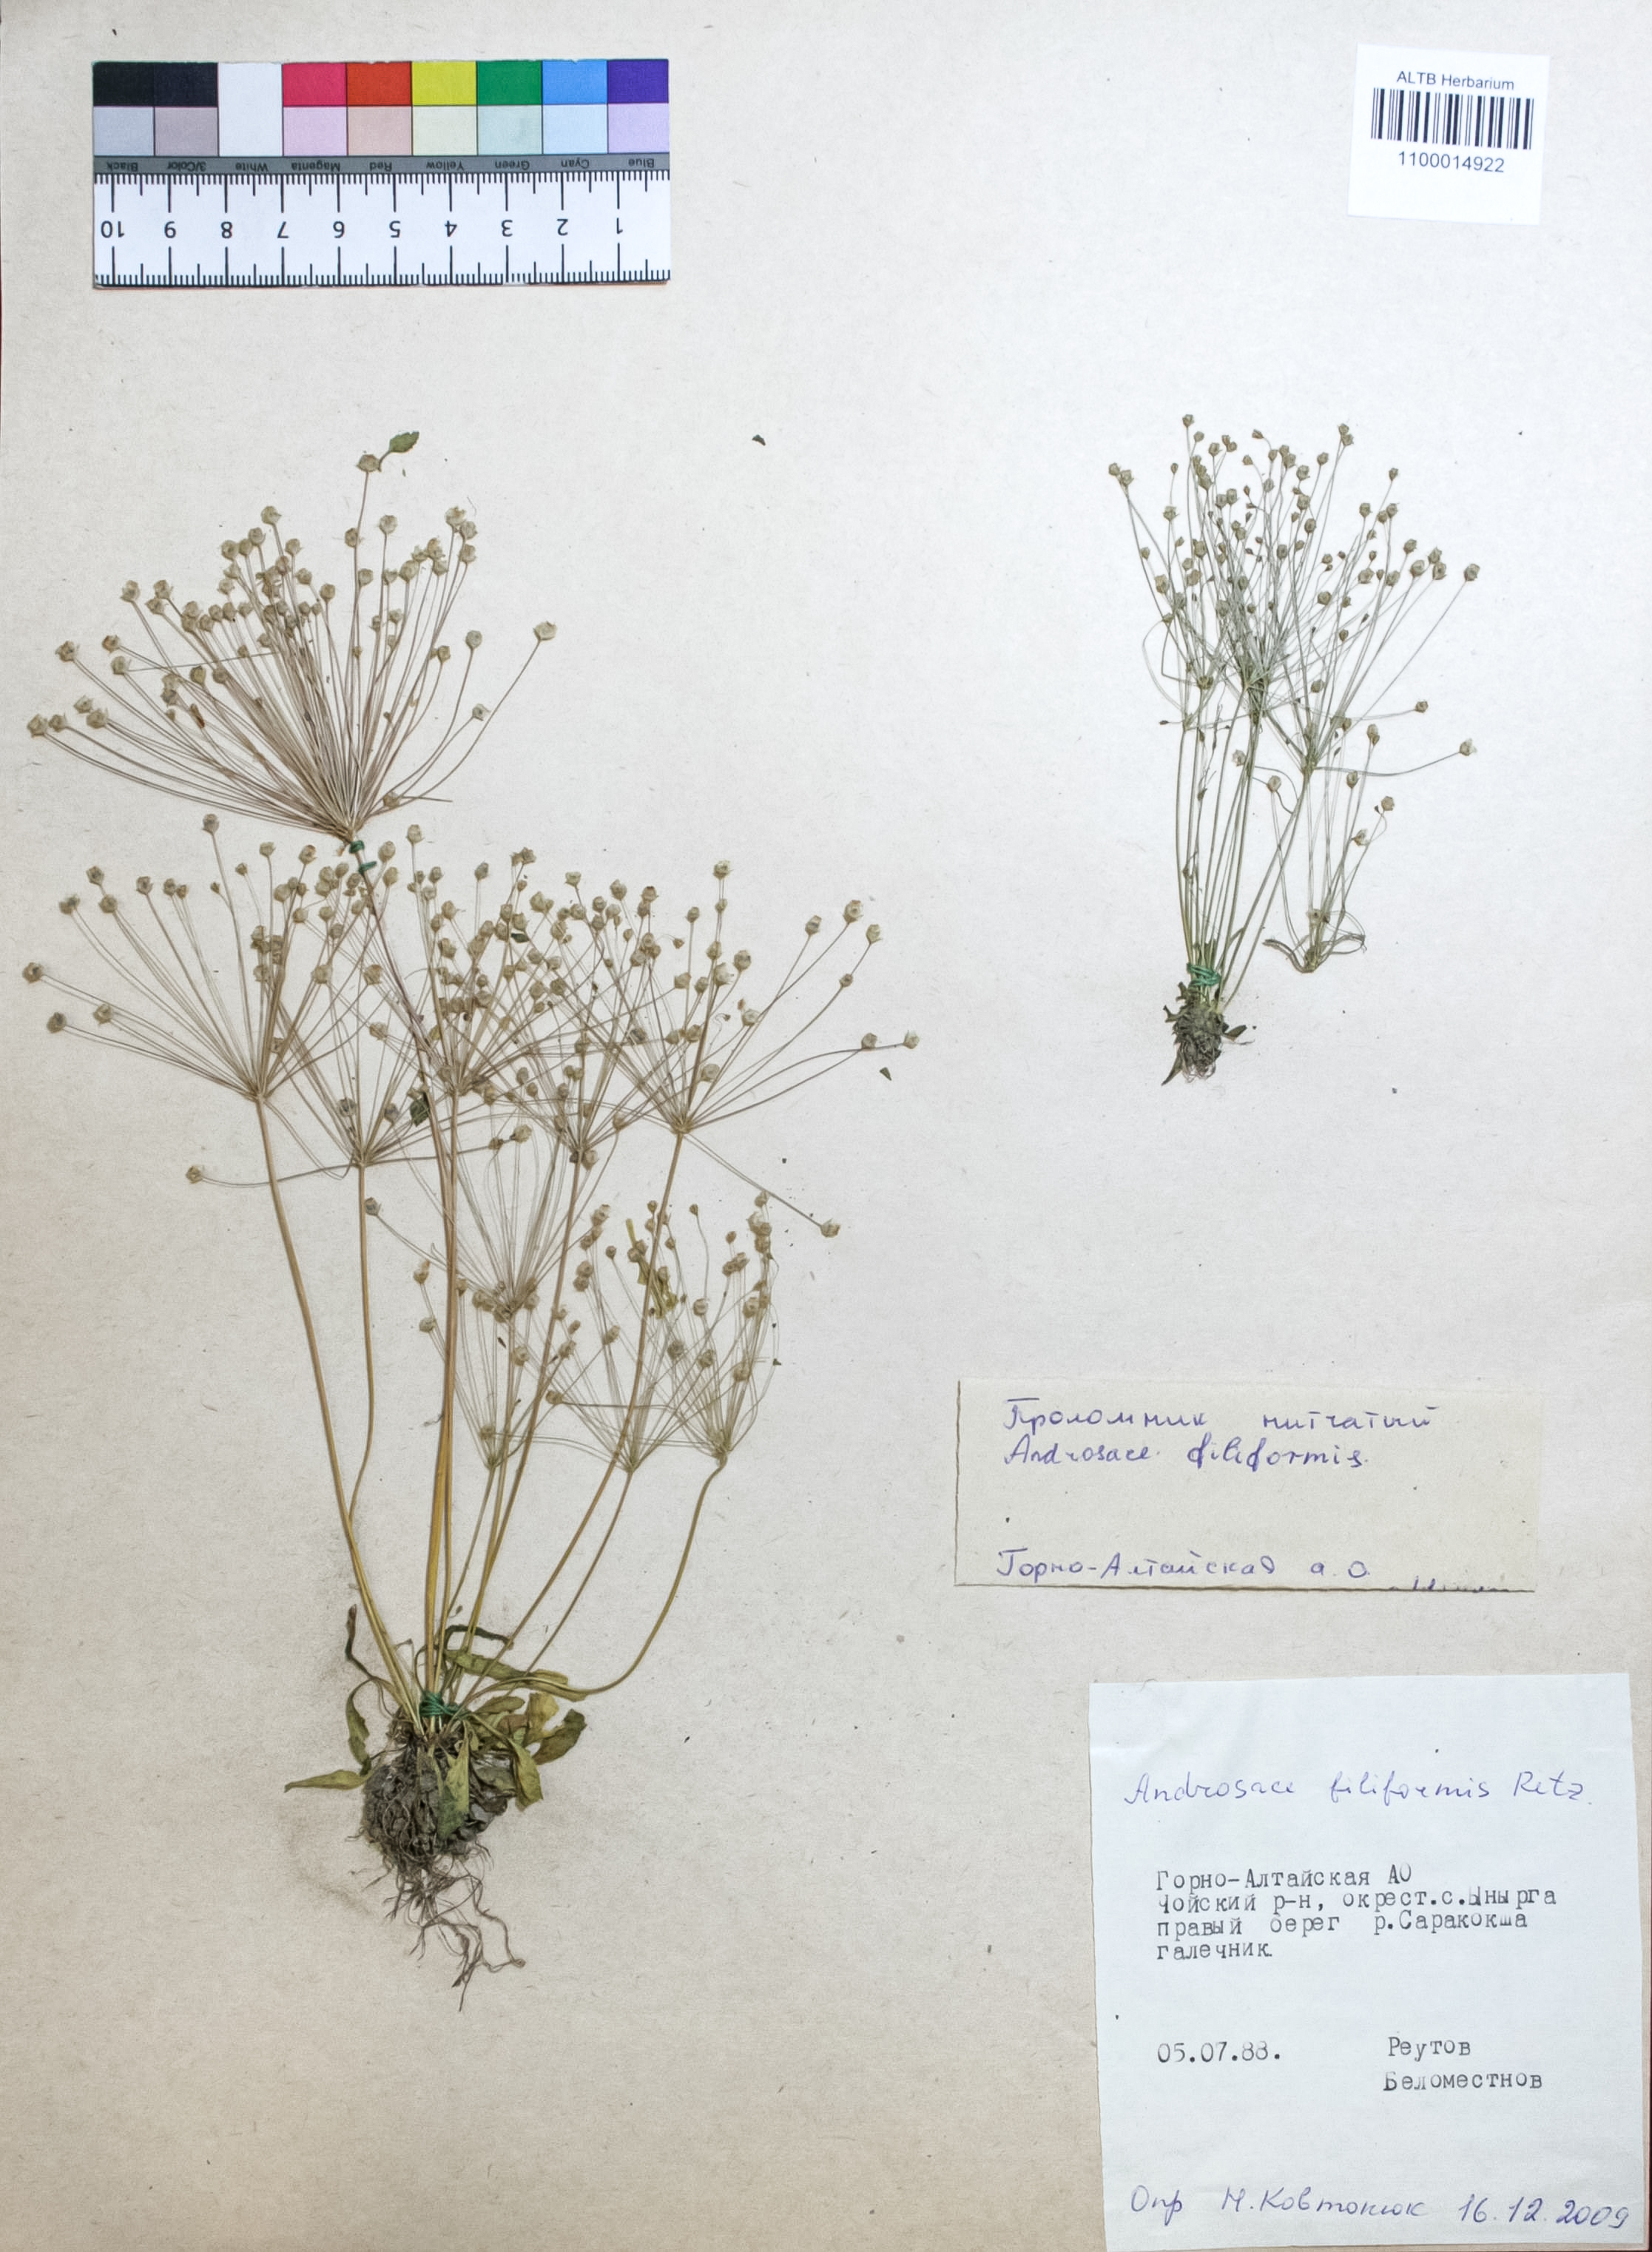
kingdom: Plantae
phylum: Tracheophyta
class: Magnoliopsida
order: Ericales
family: Primulaceae
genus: Androsace
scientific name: Androsace filiformis
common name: Filiform rock jasmine
